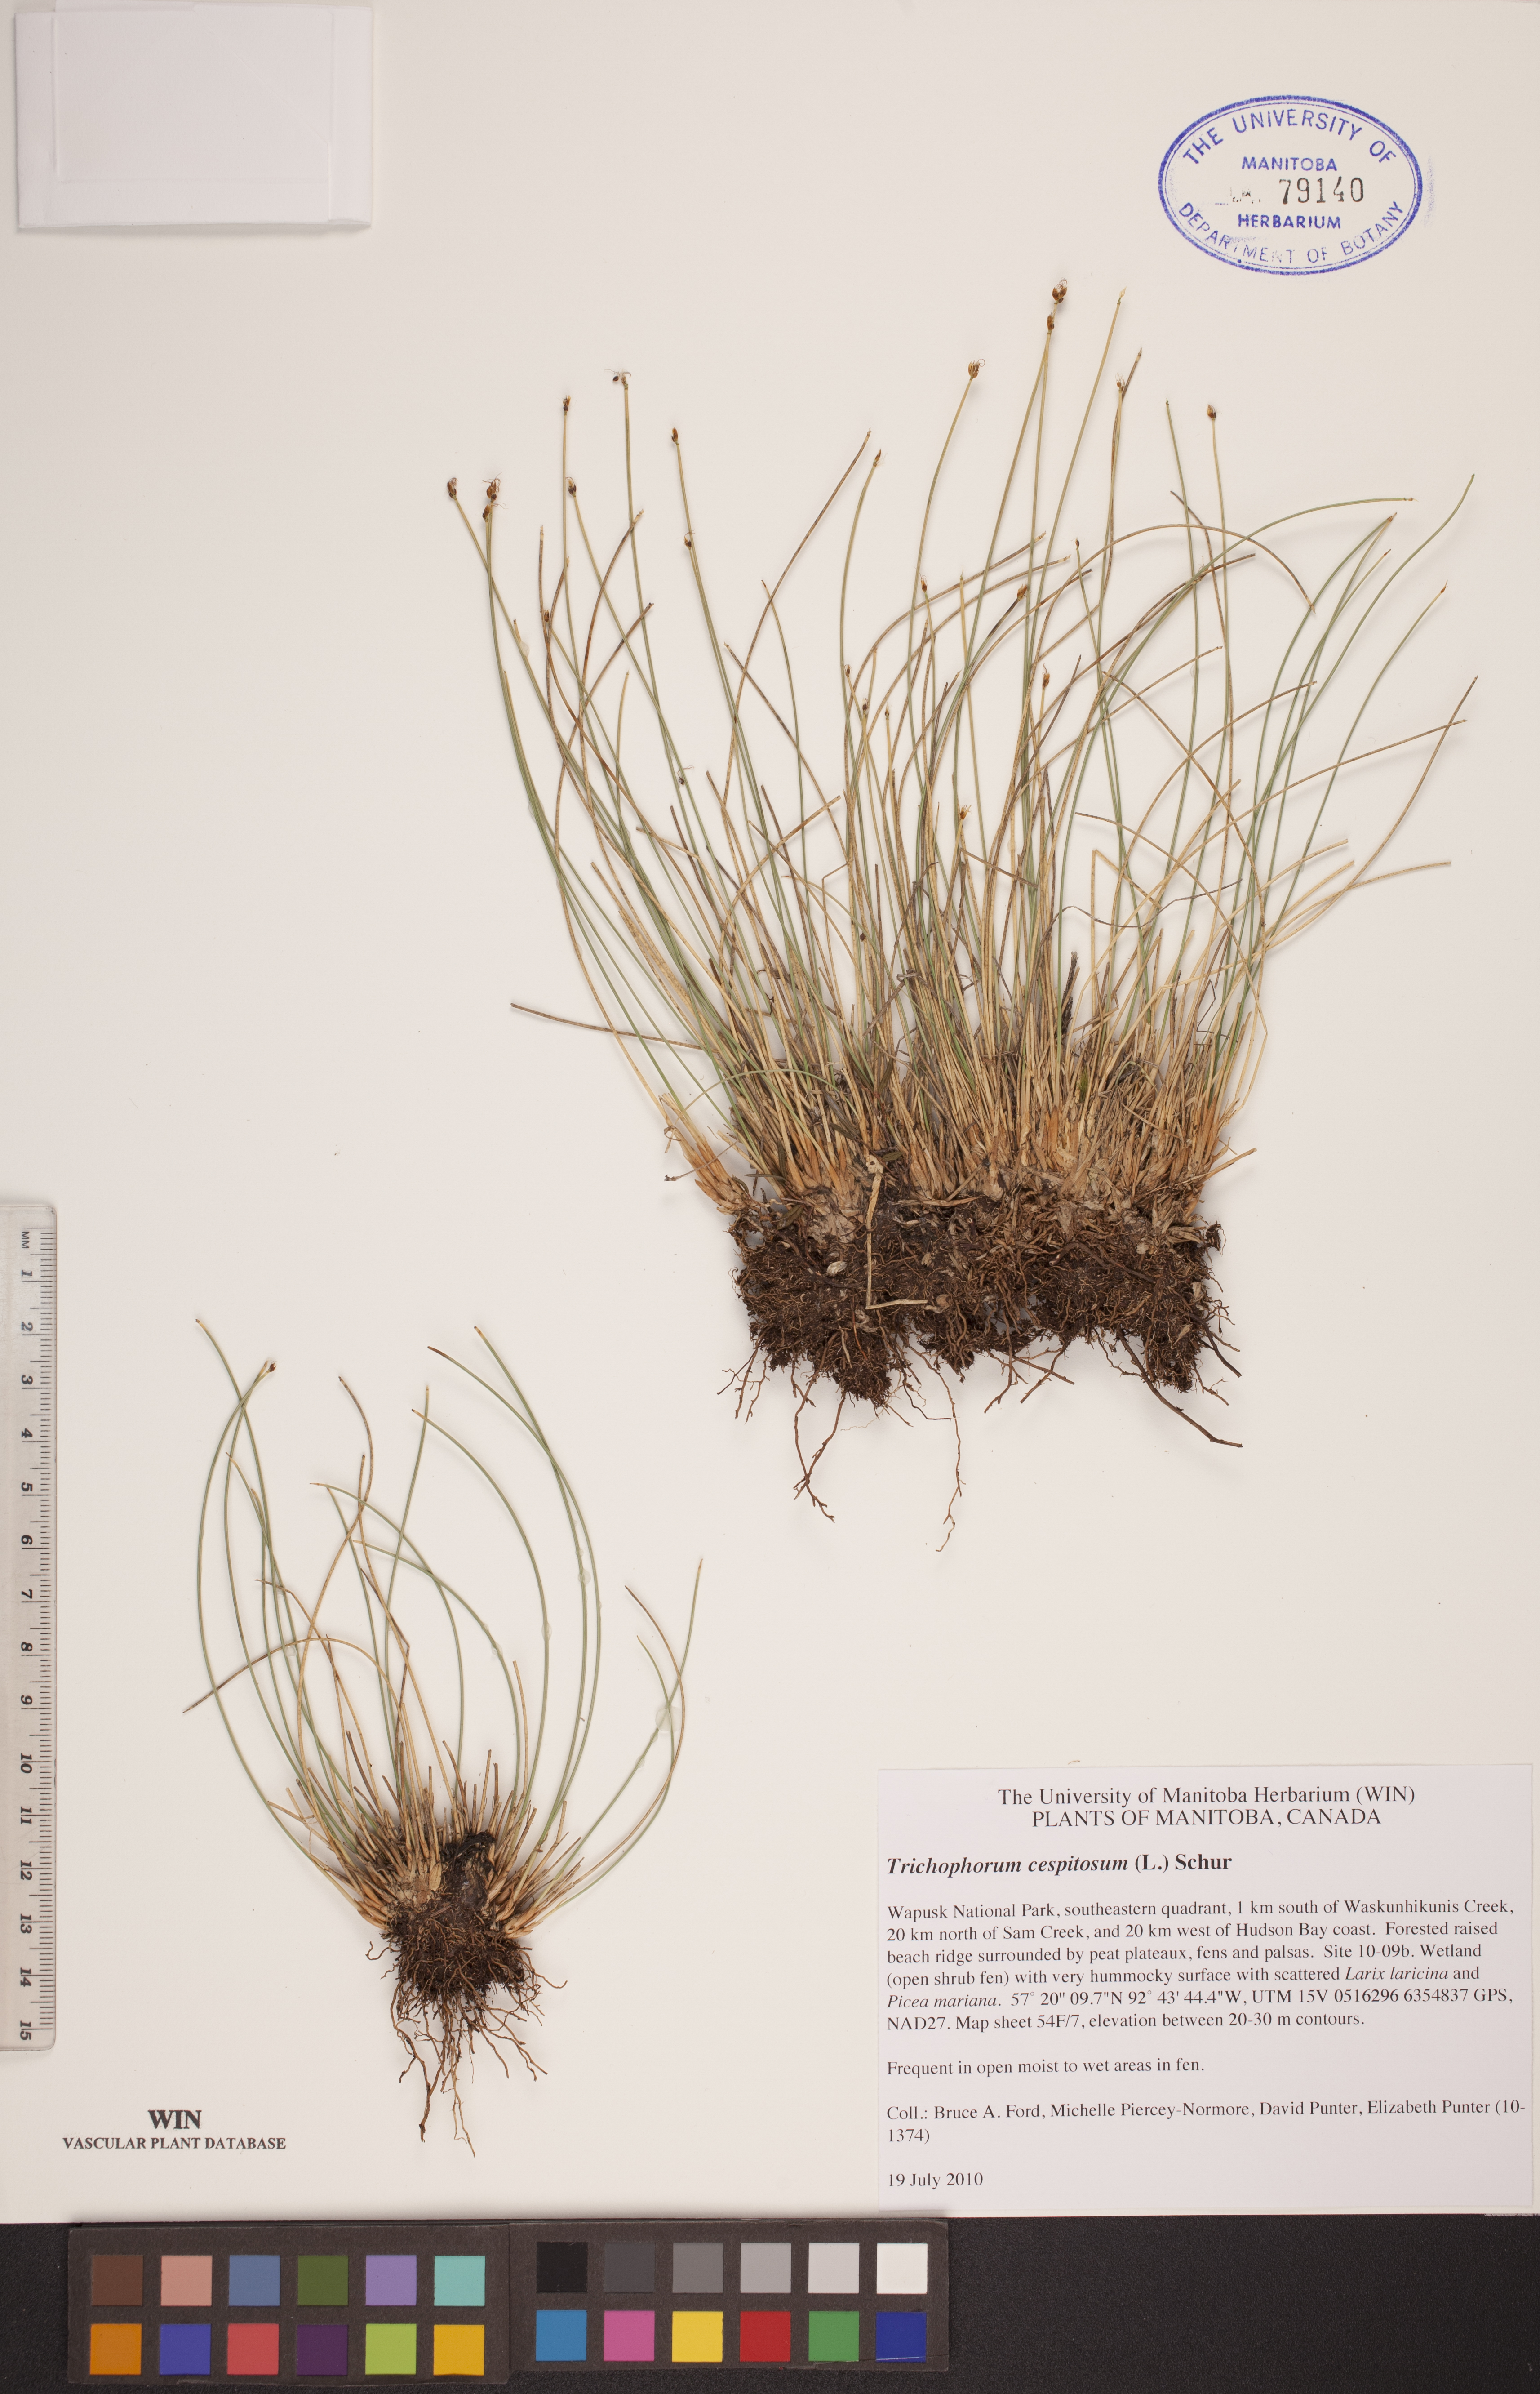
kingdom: Plantae
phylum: Tracheophyta
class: Liliopsida
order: Poales
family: Cyperaceae
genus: Trichophorum
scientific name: Trichophorum cespitosum
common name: Cespitose bulrush
